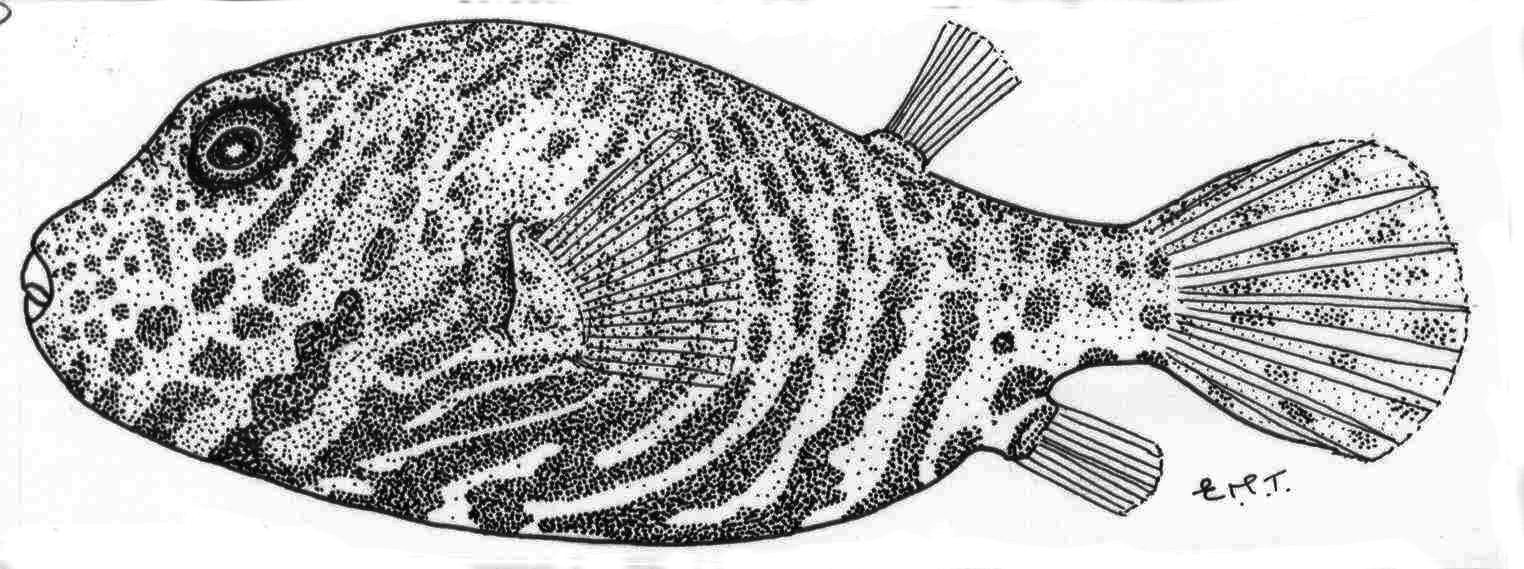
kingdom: Animalia
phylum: Chordata
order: Tetraodontiformes
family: Tetraodontidae
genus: Arothron
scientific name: Arothron stellatus
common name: Star blaasop
